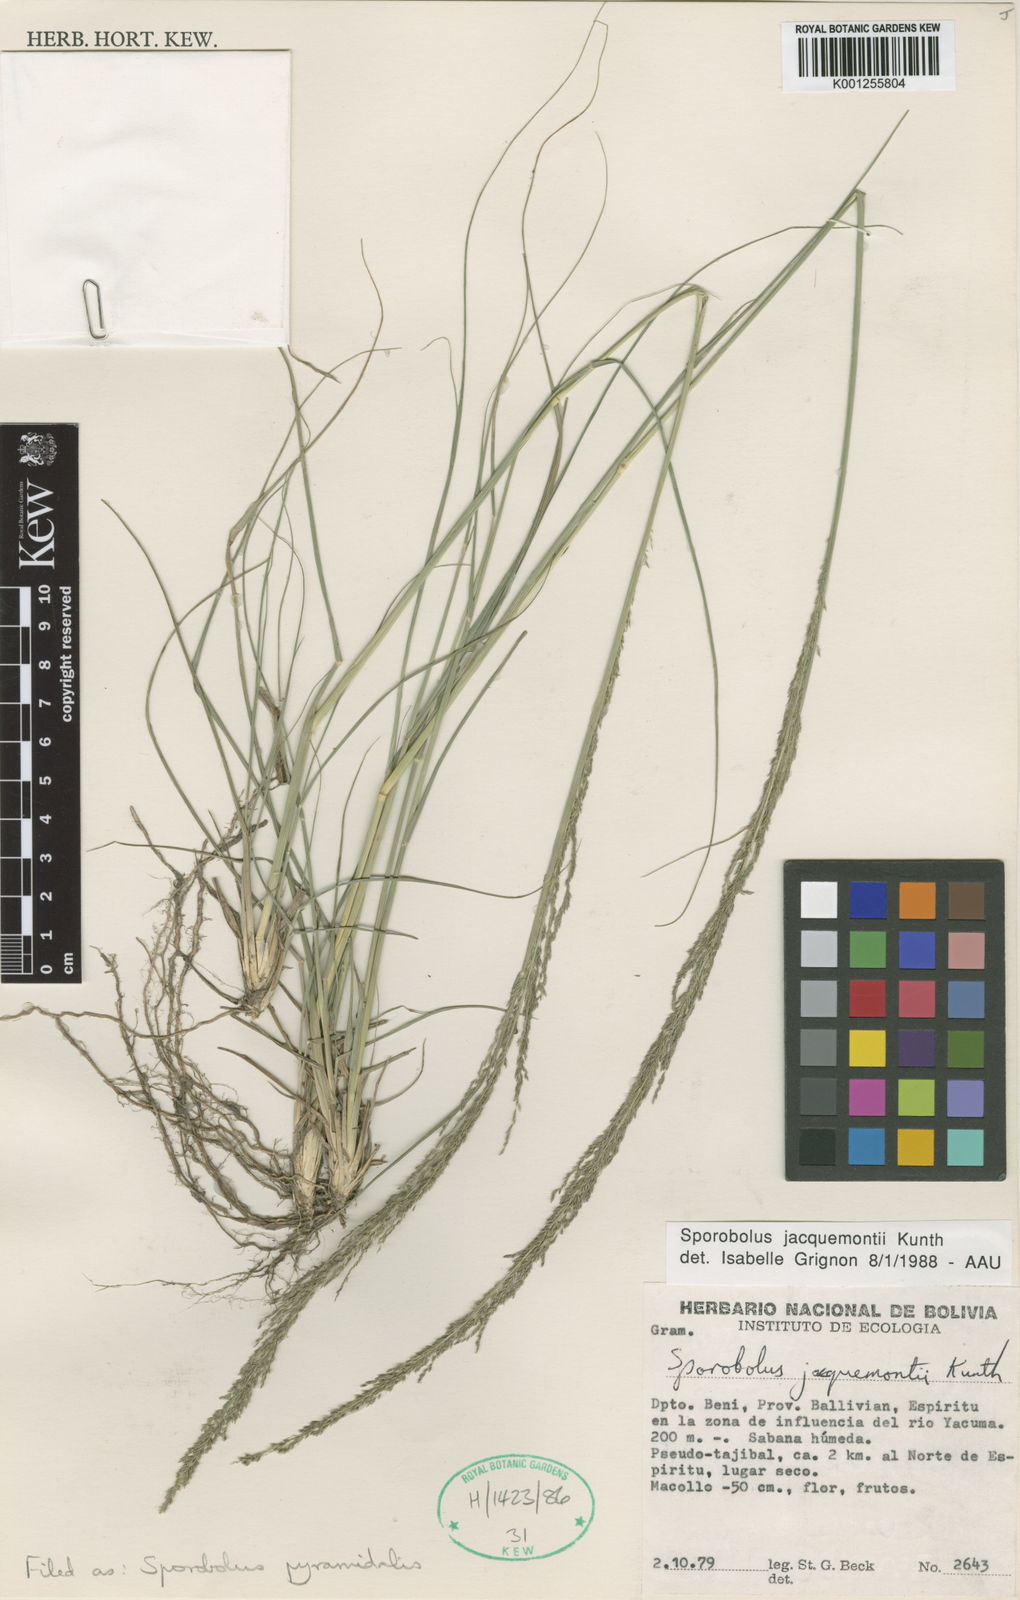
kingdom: Plantae
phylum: Tracheophyta
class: Liliopsida
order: Poales
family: Poaceae
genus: Sporobolus
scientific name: Sporobolus pyramidalis
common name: West indian dropseed
